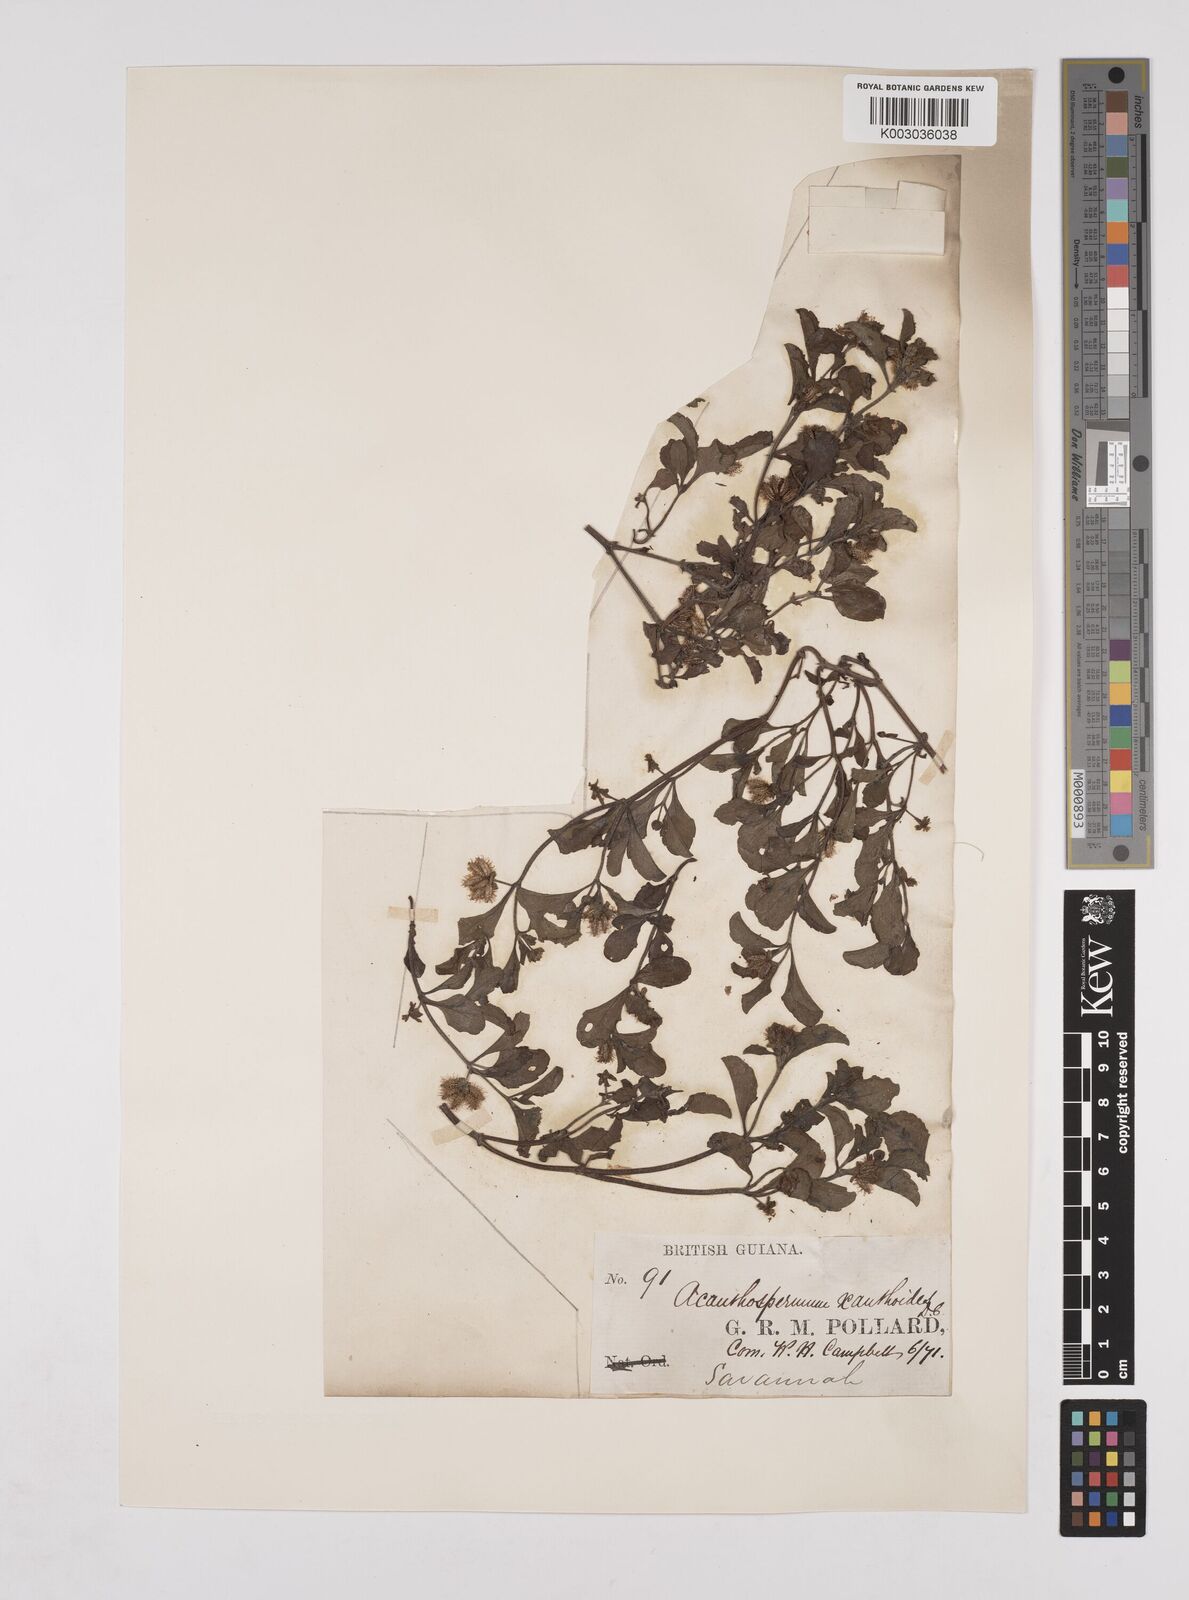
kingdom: Plantae
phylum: Tracheophyta
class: Magnoliopsida
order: Asterales
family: Asteraceae
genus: Acanthospermum
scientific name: Acanthospermum australe
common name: Paraguayan starbur
